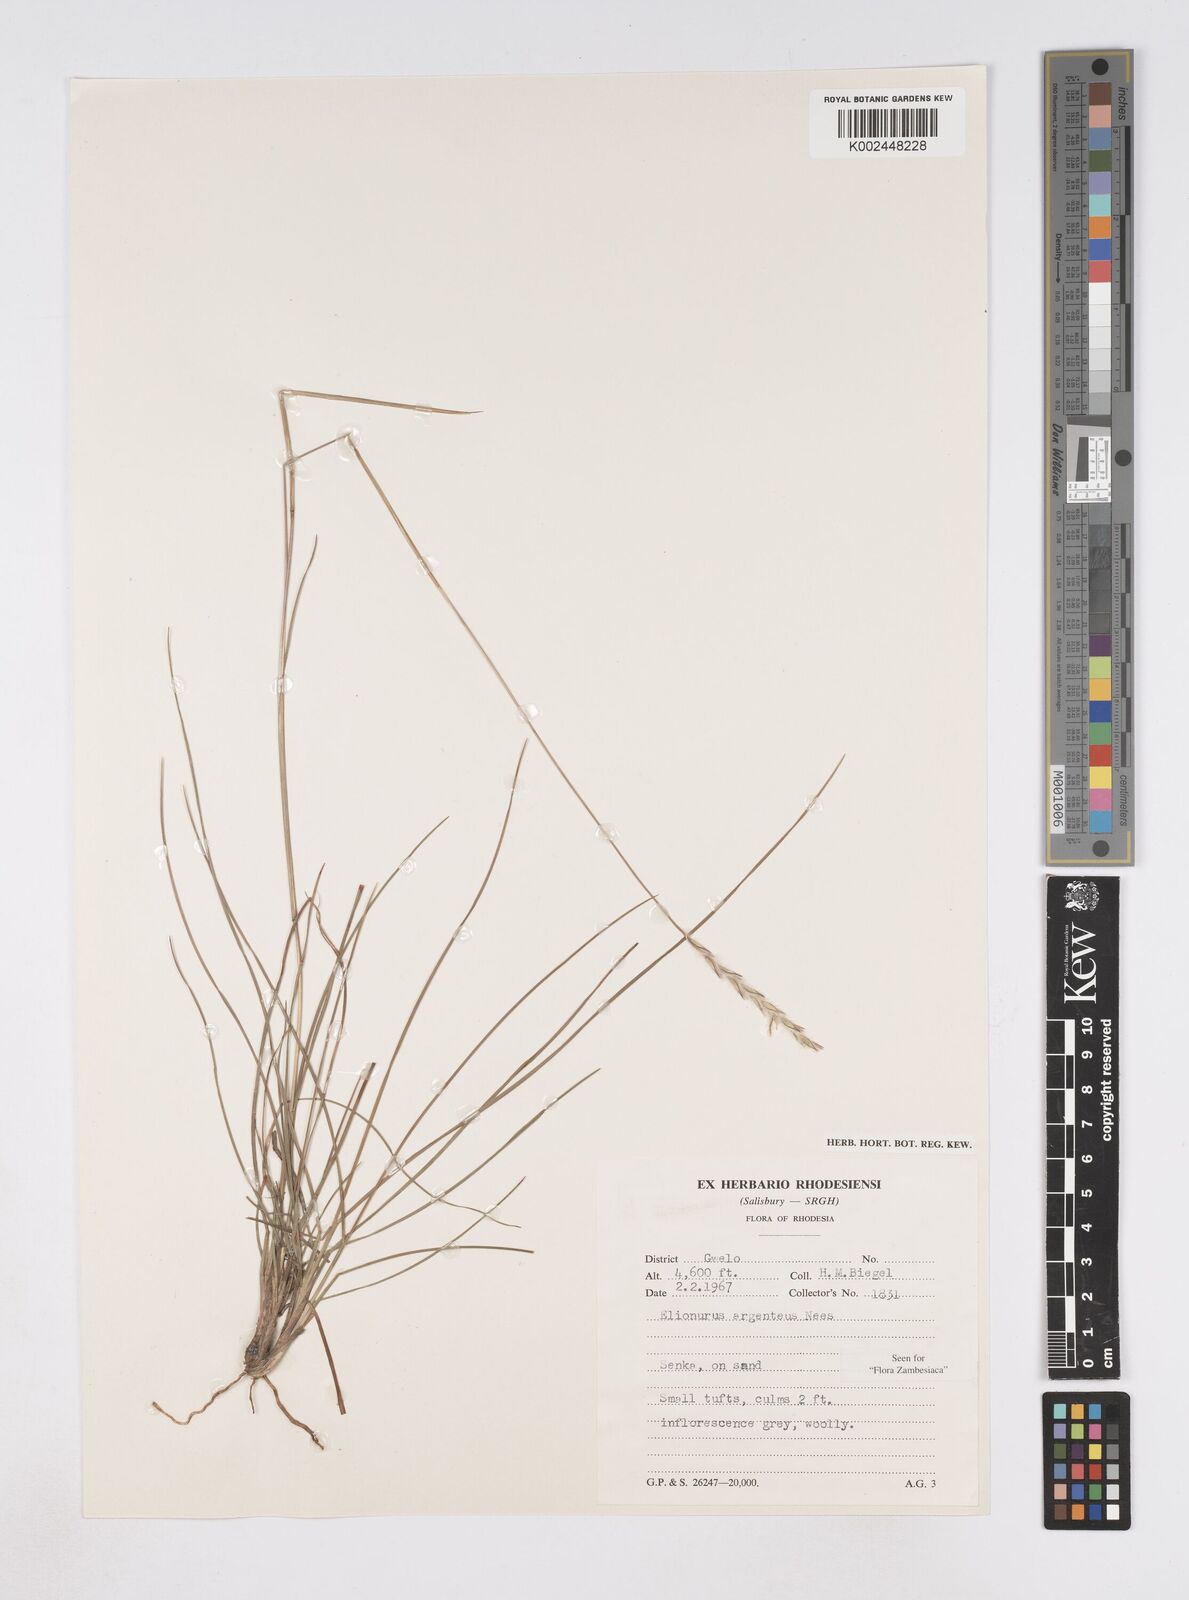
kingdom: Plantae
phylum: Tracheophyta
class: Liliopsida
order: Poales
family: Poaceae
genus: Elionurus
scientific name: Elionurus muticus
